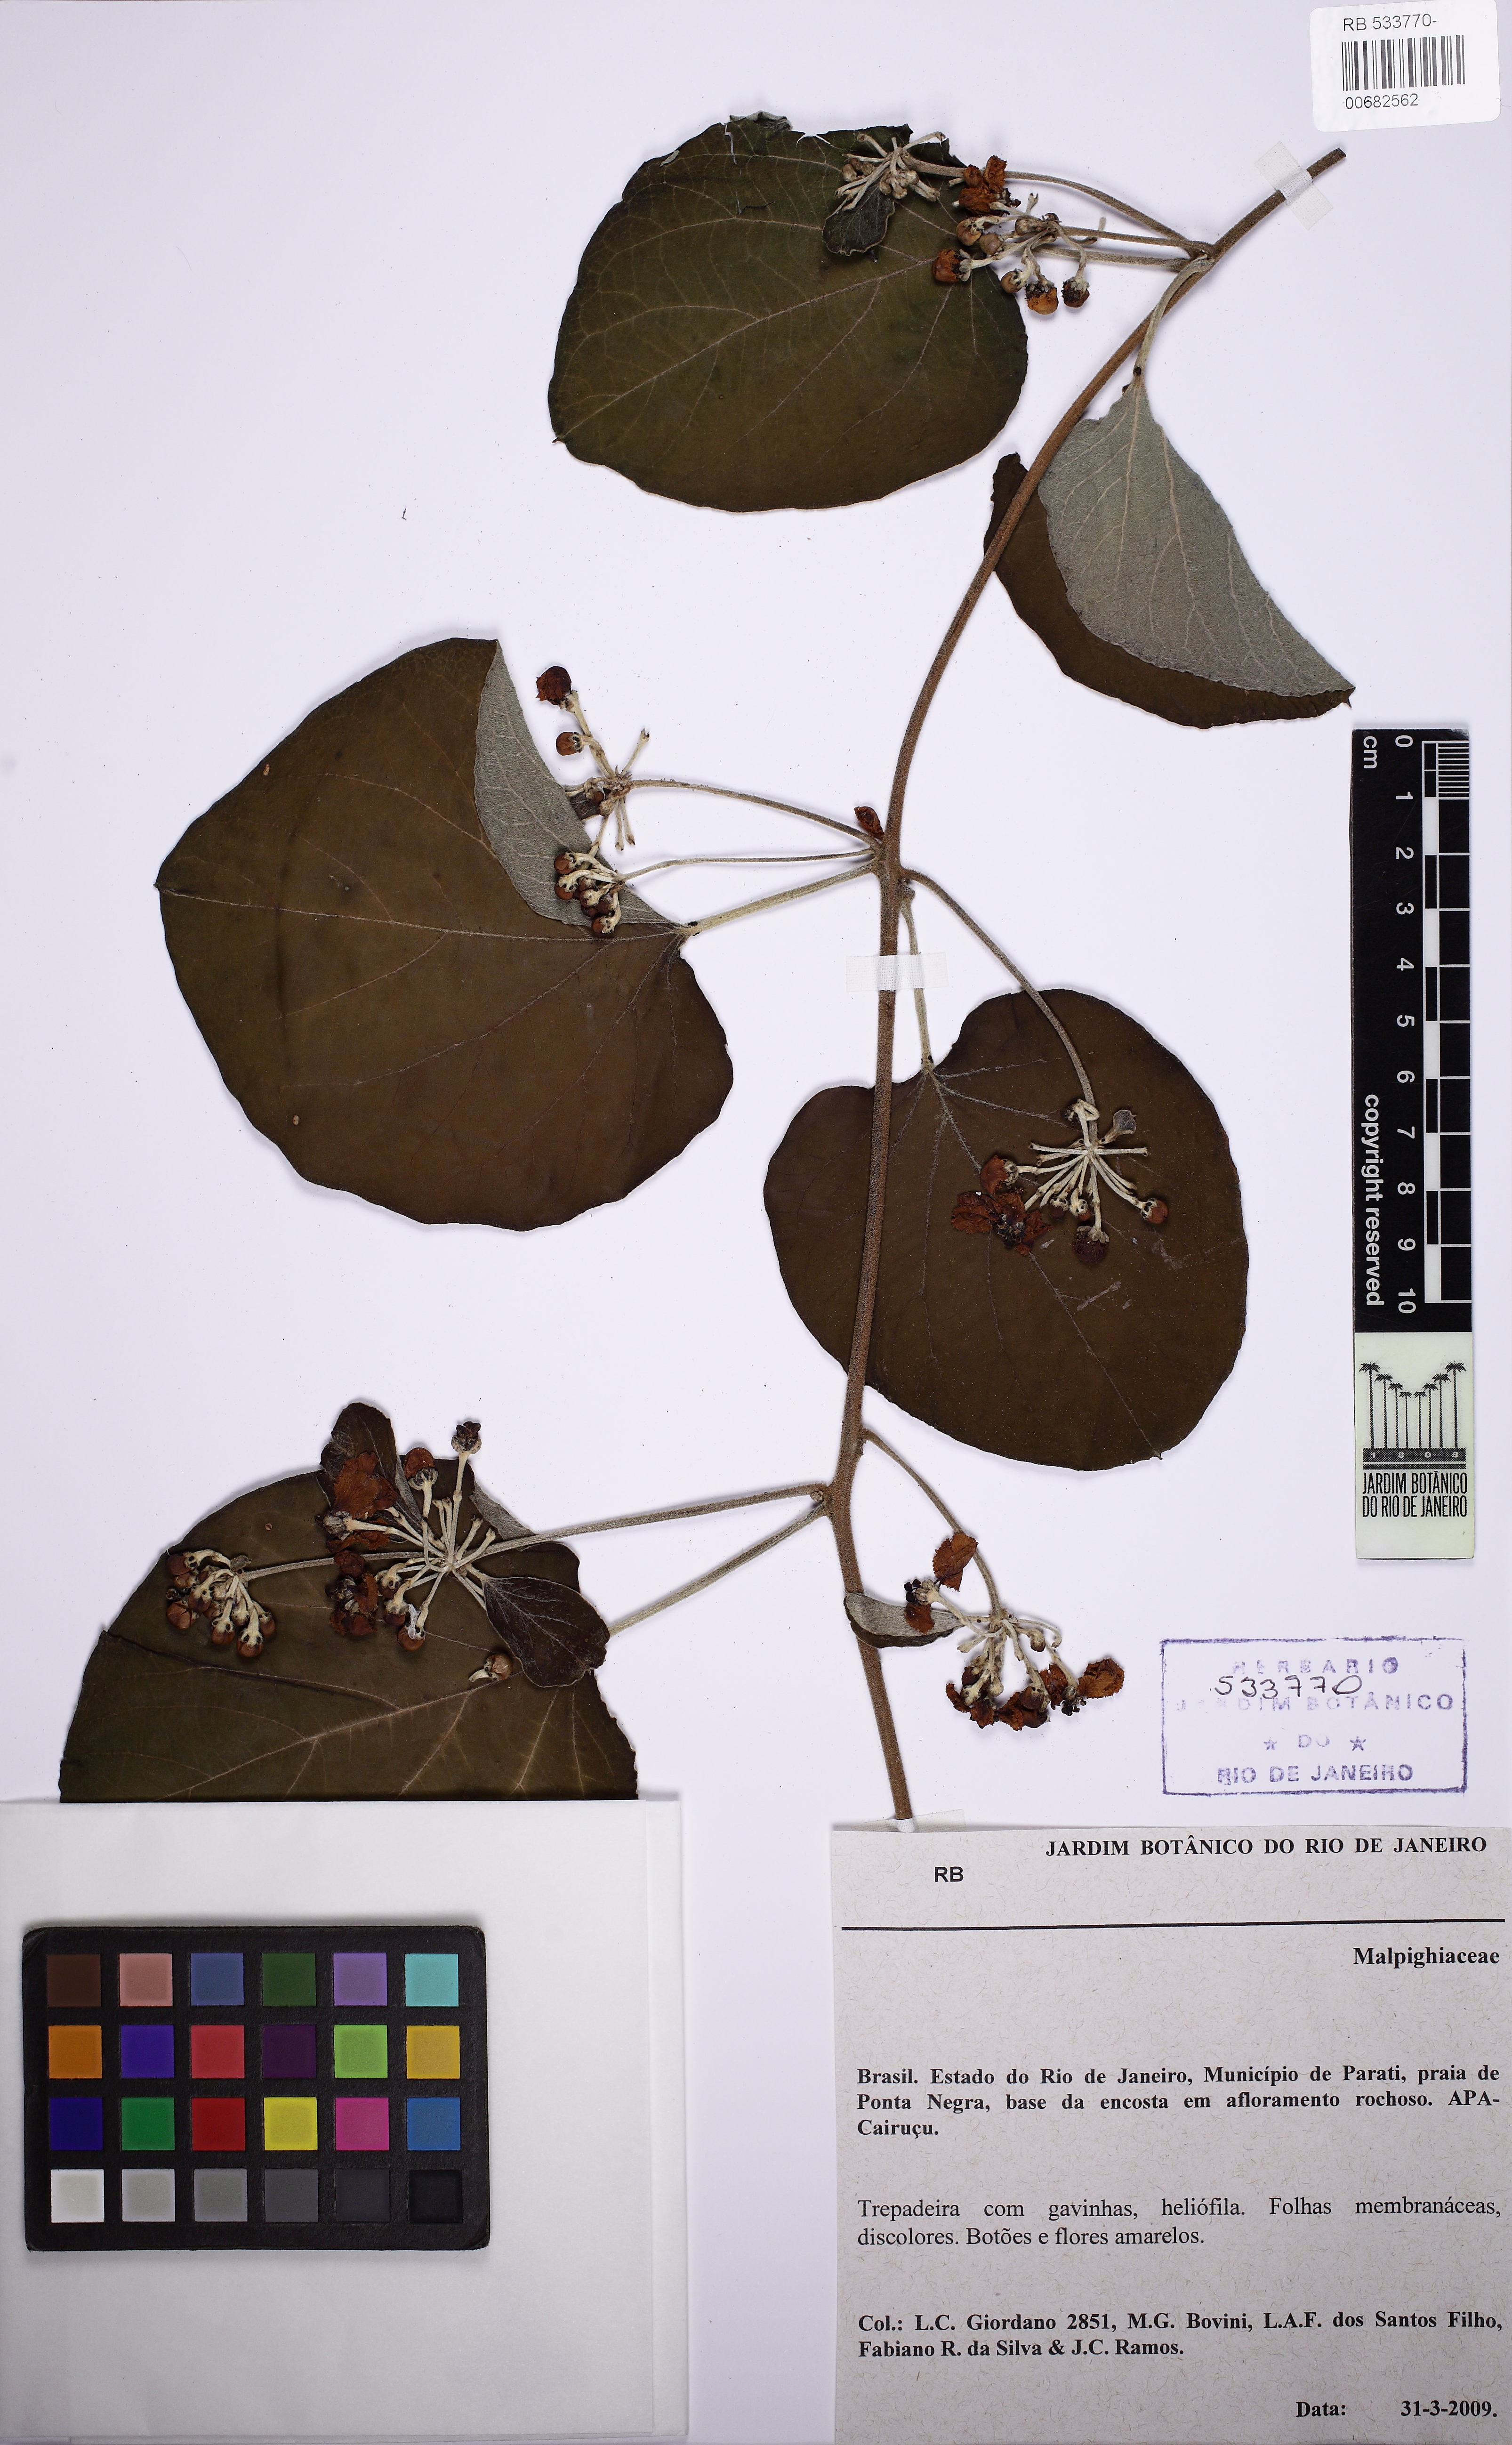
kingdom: Plantae
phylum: Tracheophyta
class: Magnoliopsida
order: Malpighiales
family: Malpighiaceae
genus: Stigmaphyllon
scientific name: Stigmaphyllon tomentosum
